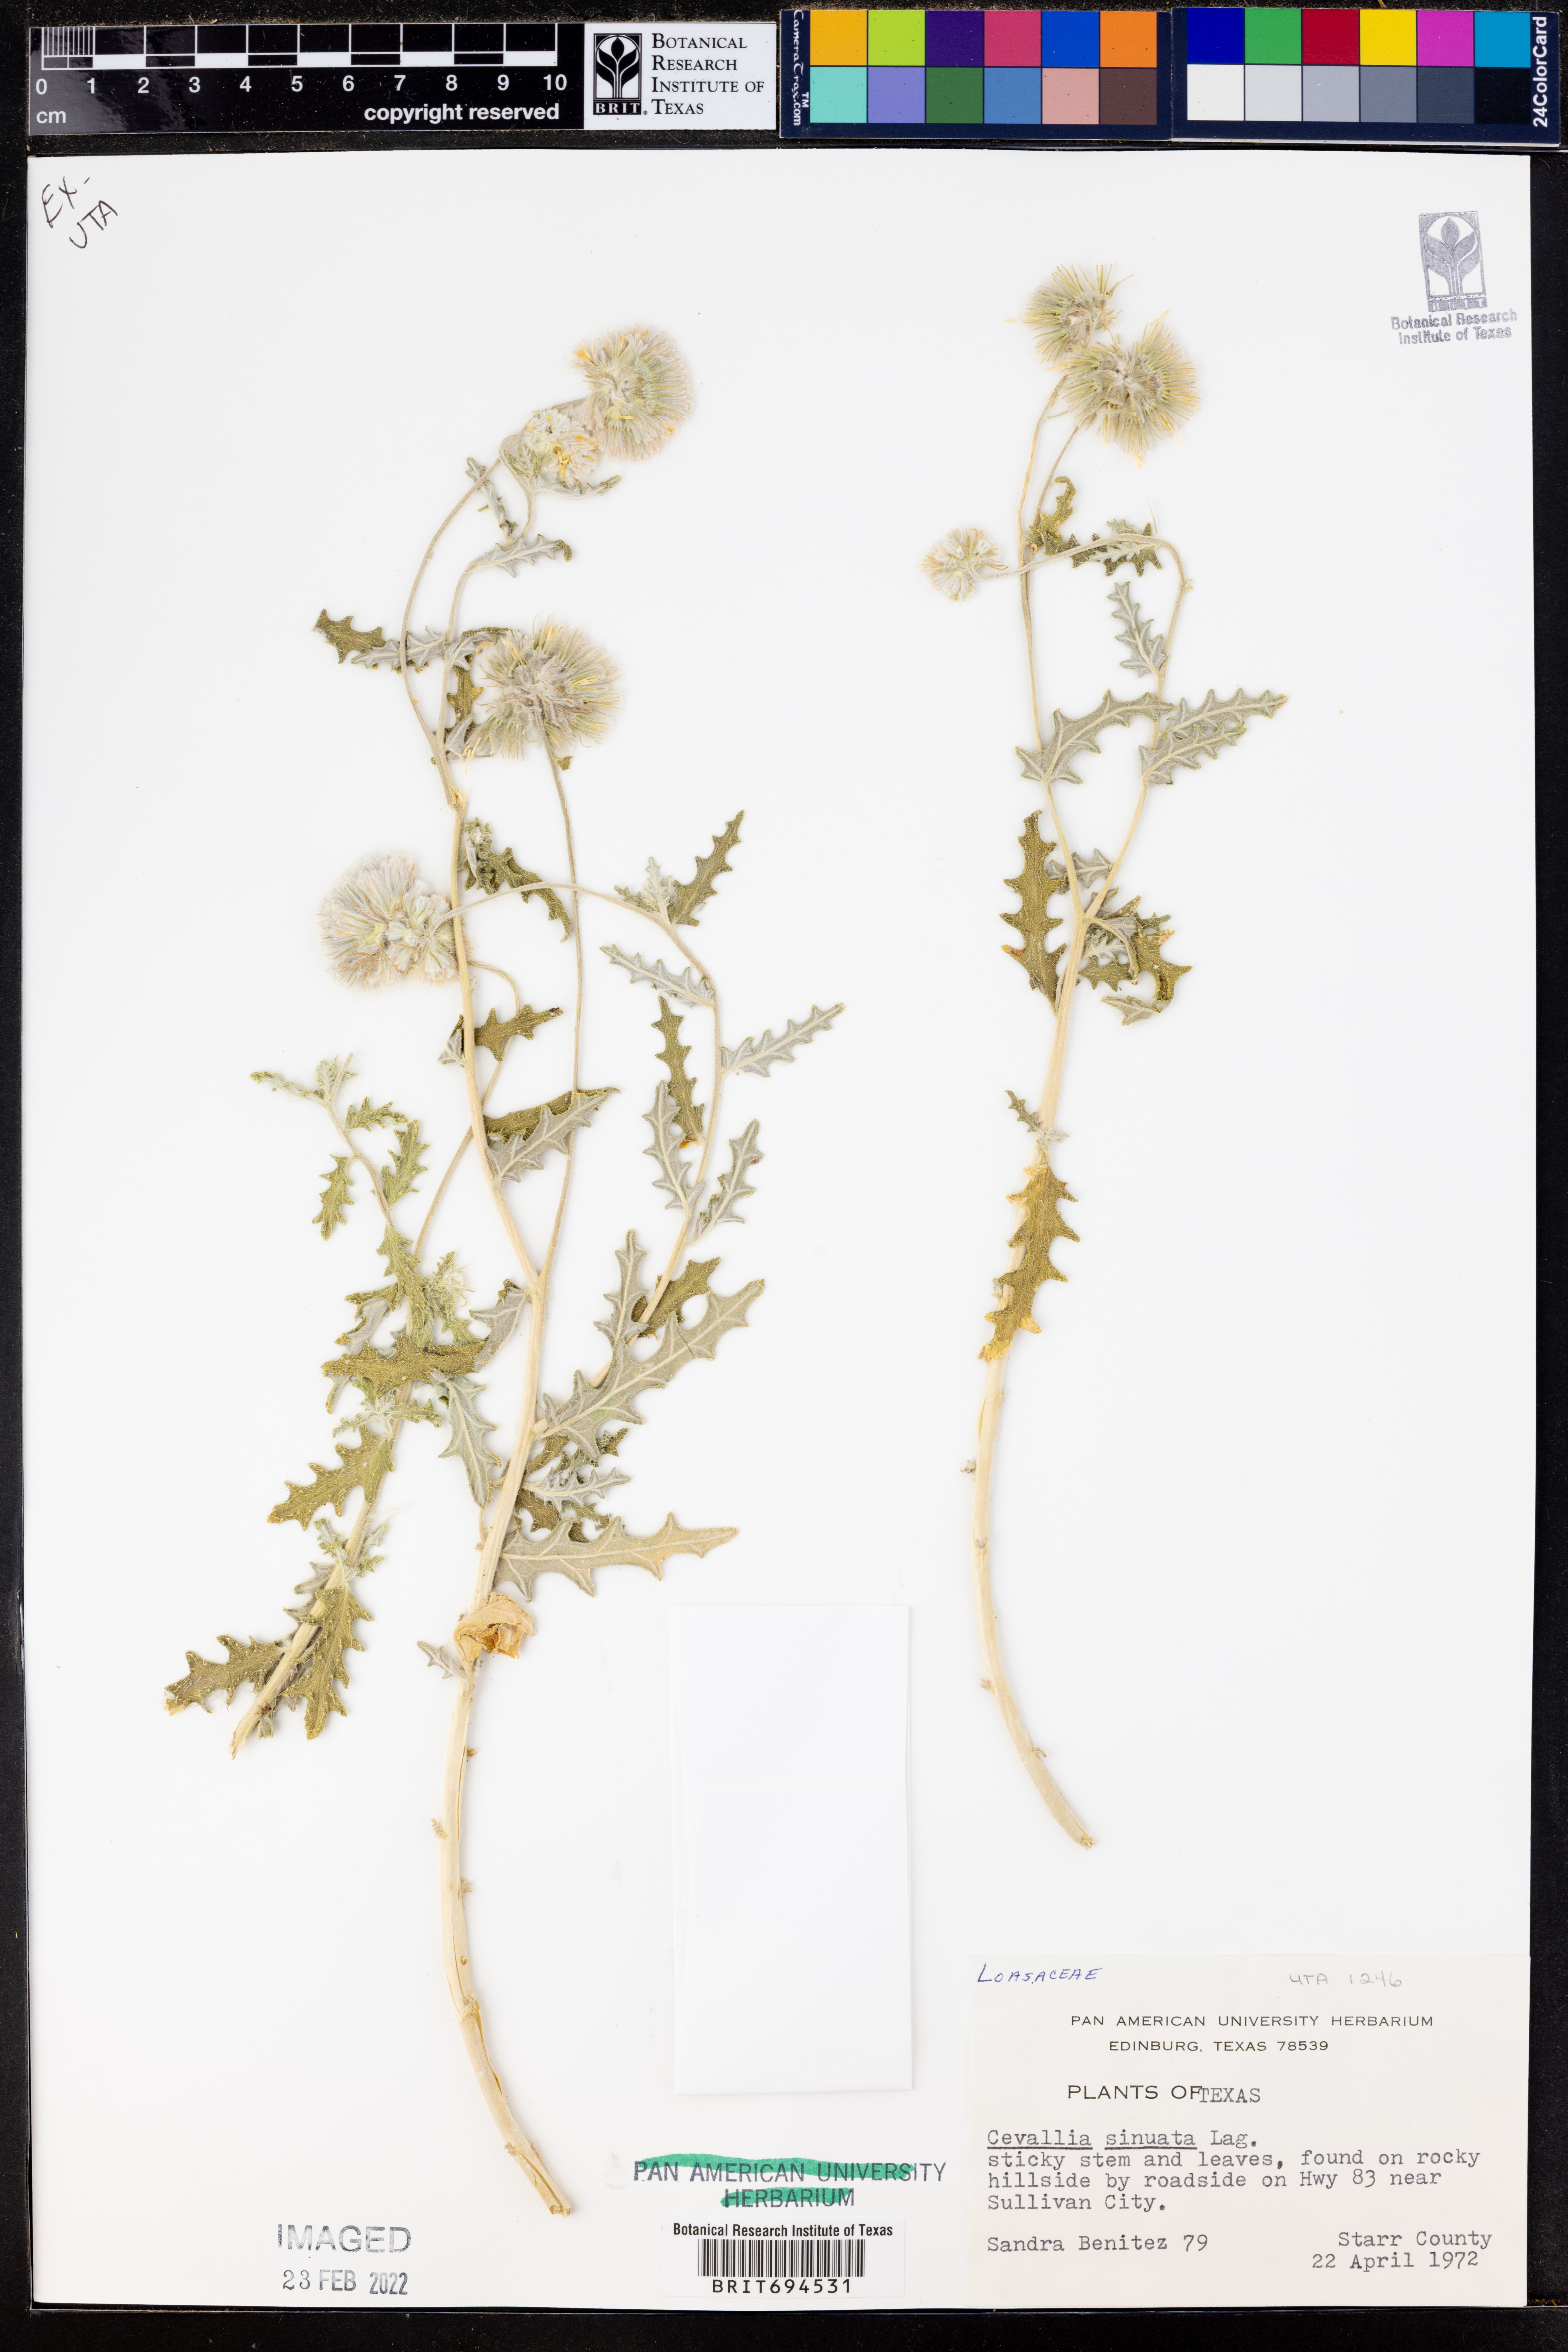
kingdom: Plantae
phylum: Tracheophyta
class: Magnoliopsida
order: Cornales
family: Loasaceae
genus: Cevallia
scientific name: Cevallia sinuata
